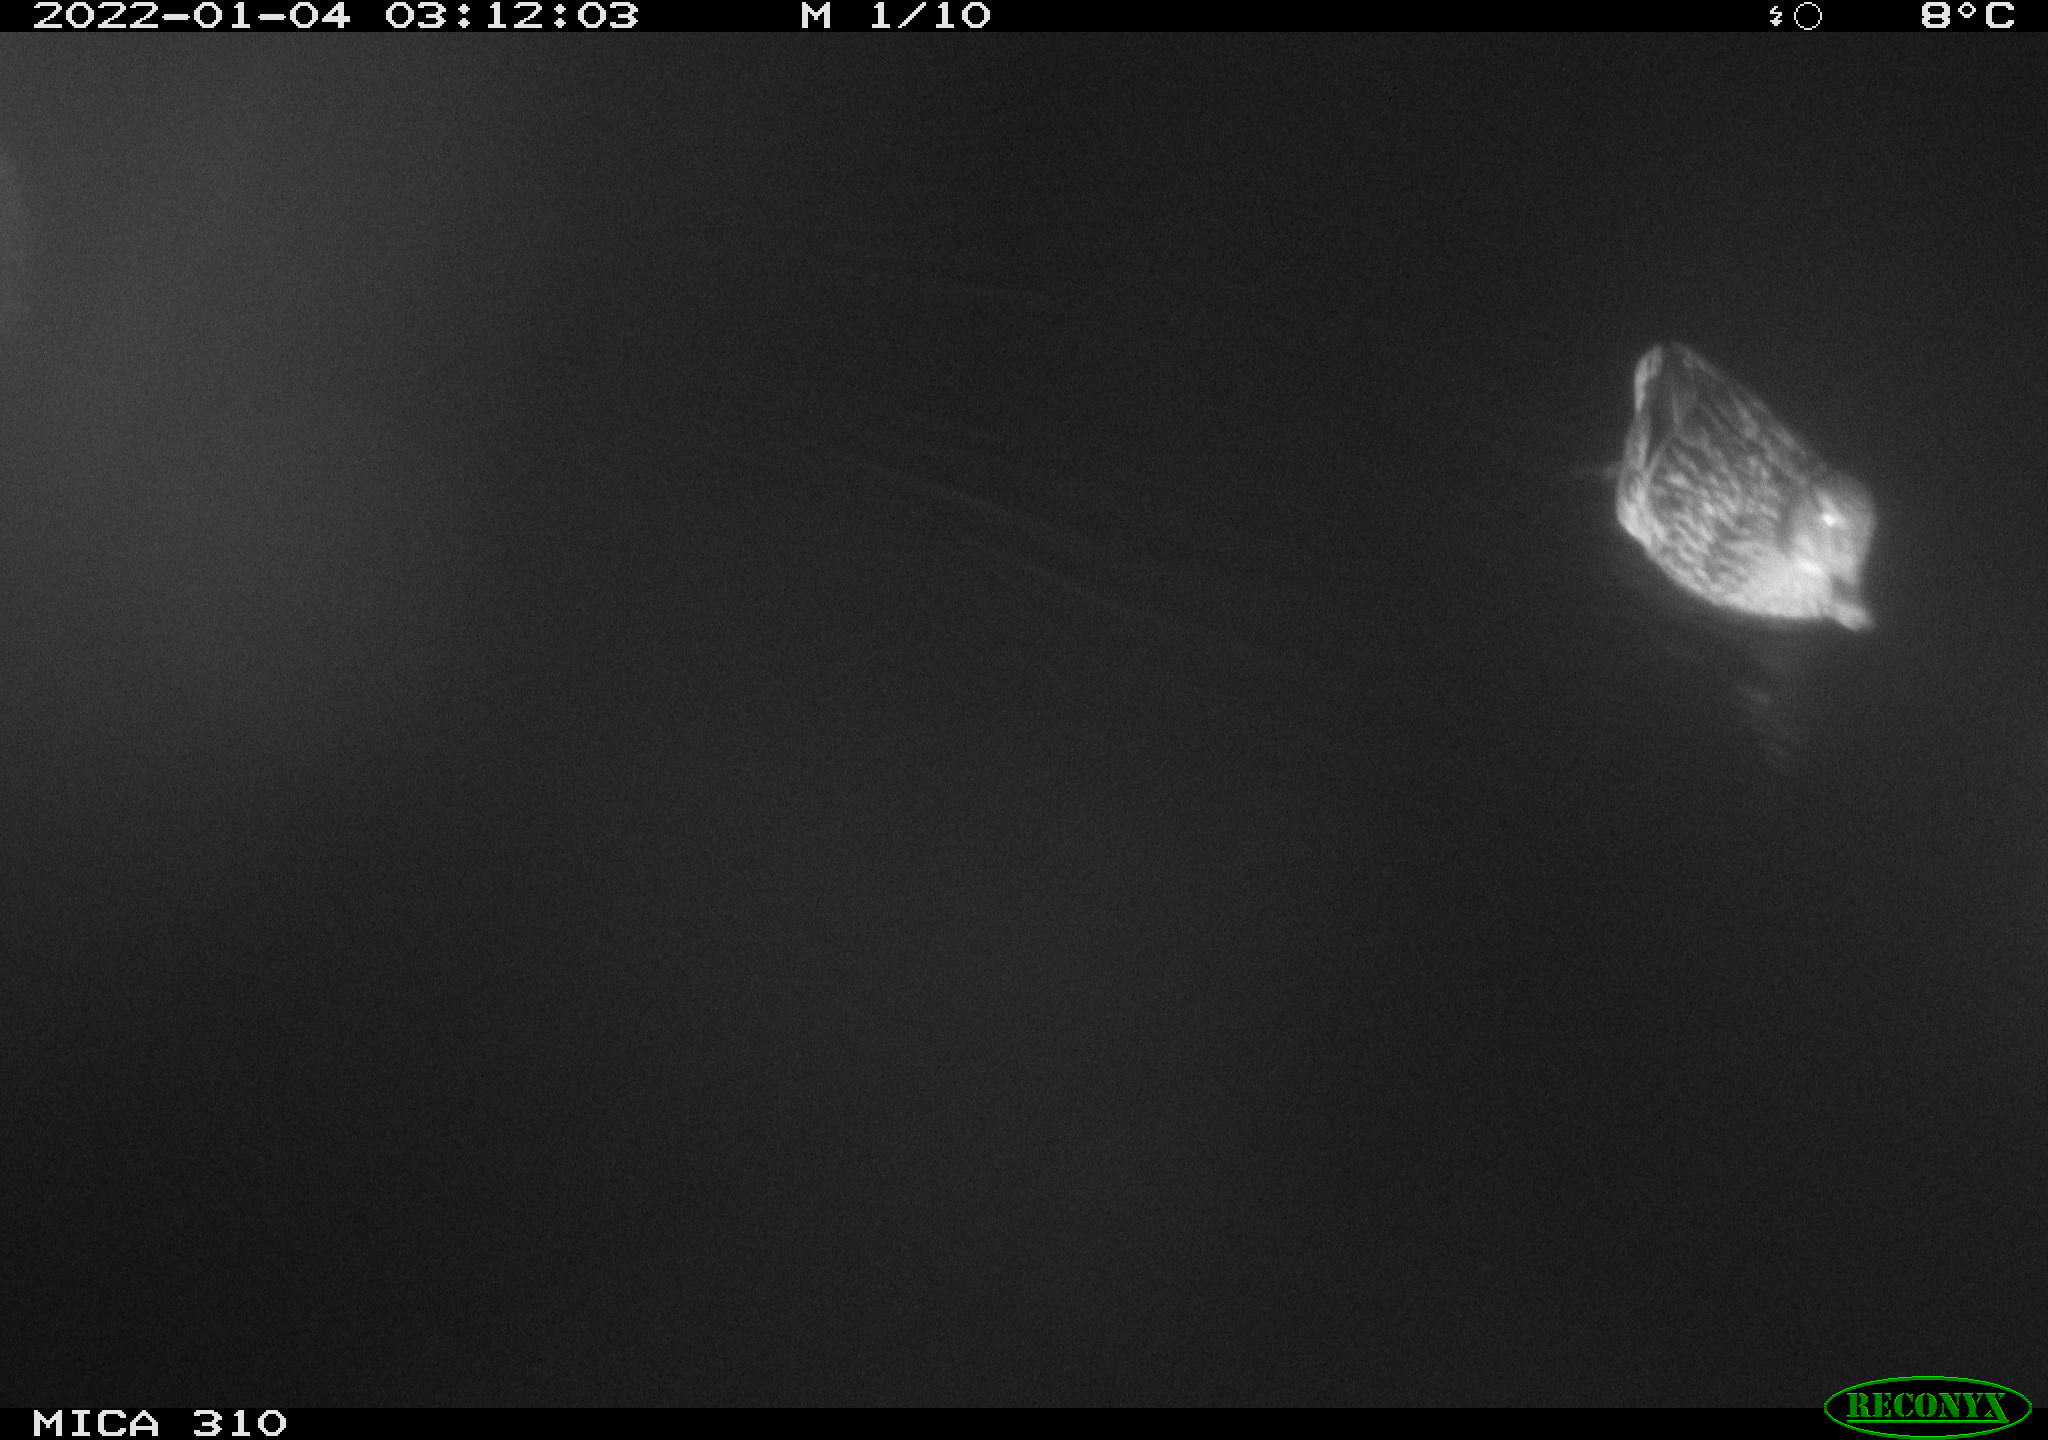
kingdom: Animalia
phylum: Chordata
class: Aves
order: Anseriformes
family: Anatidae
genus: Anas
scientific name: Anas platyrhynchos
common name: Mallard
